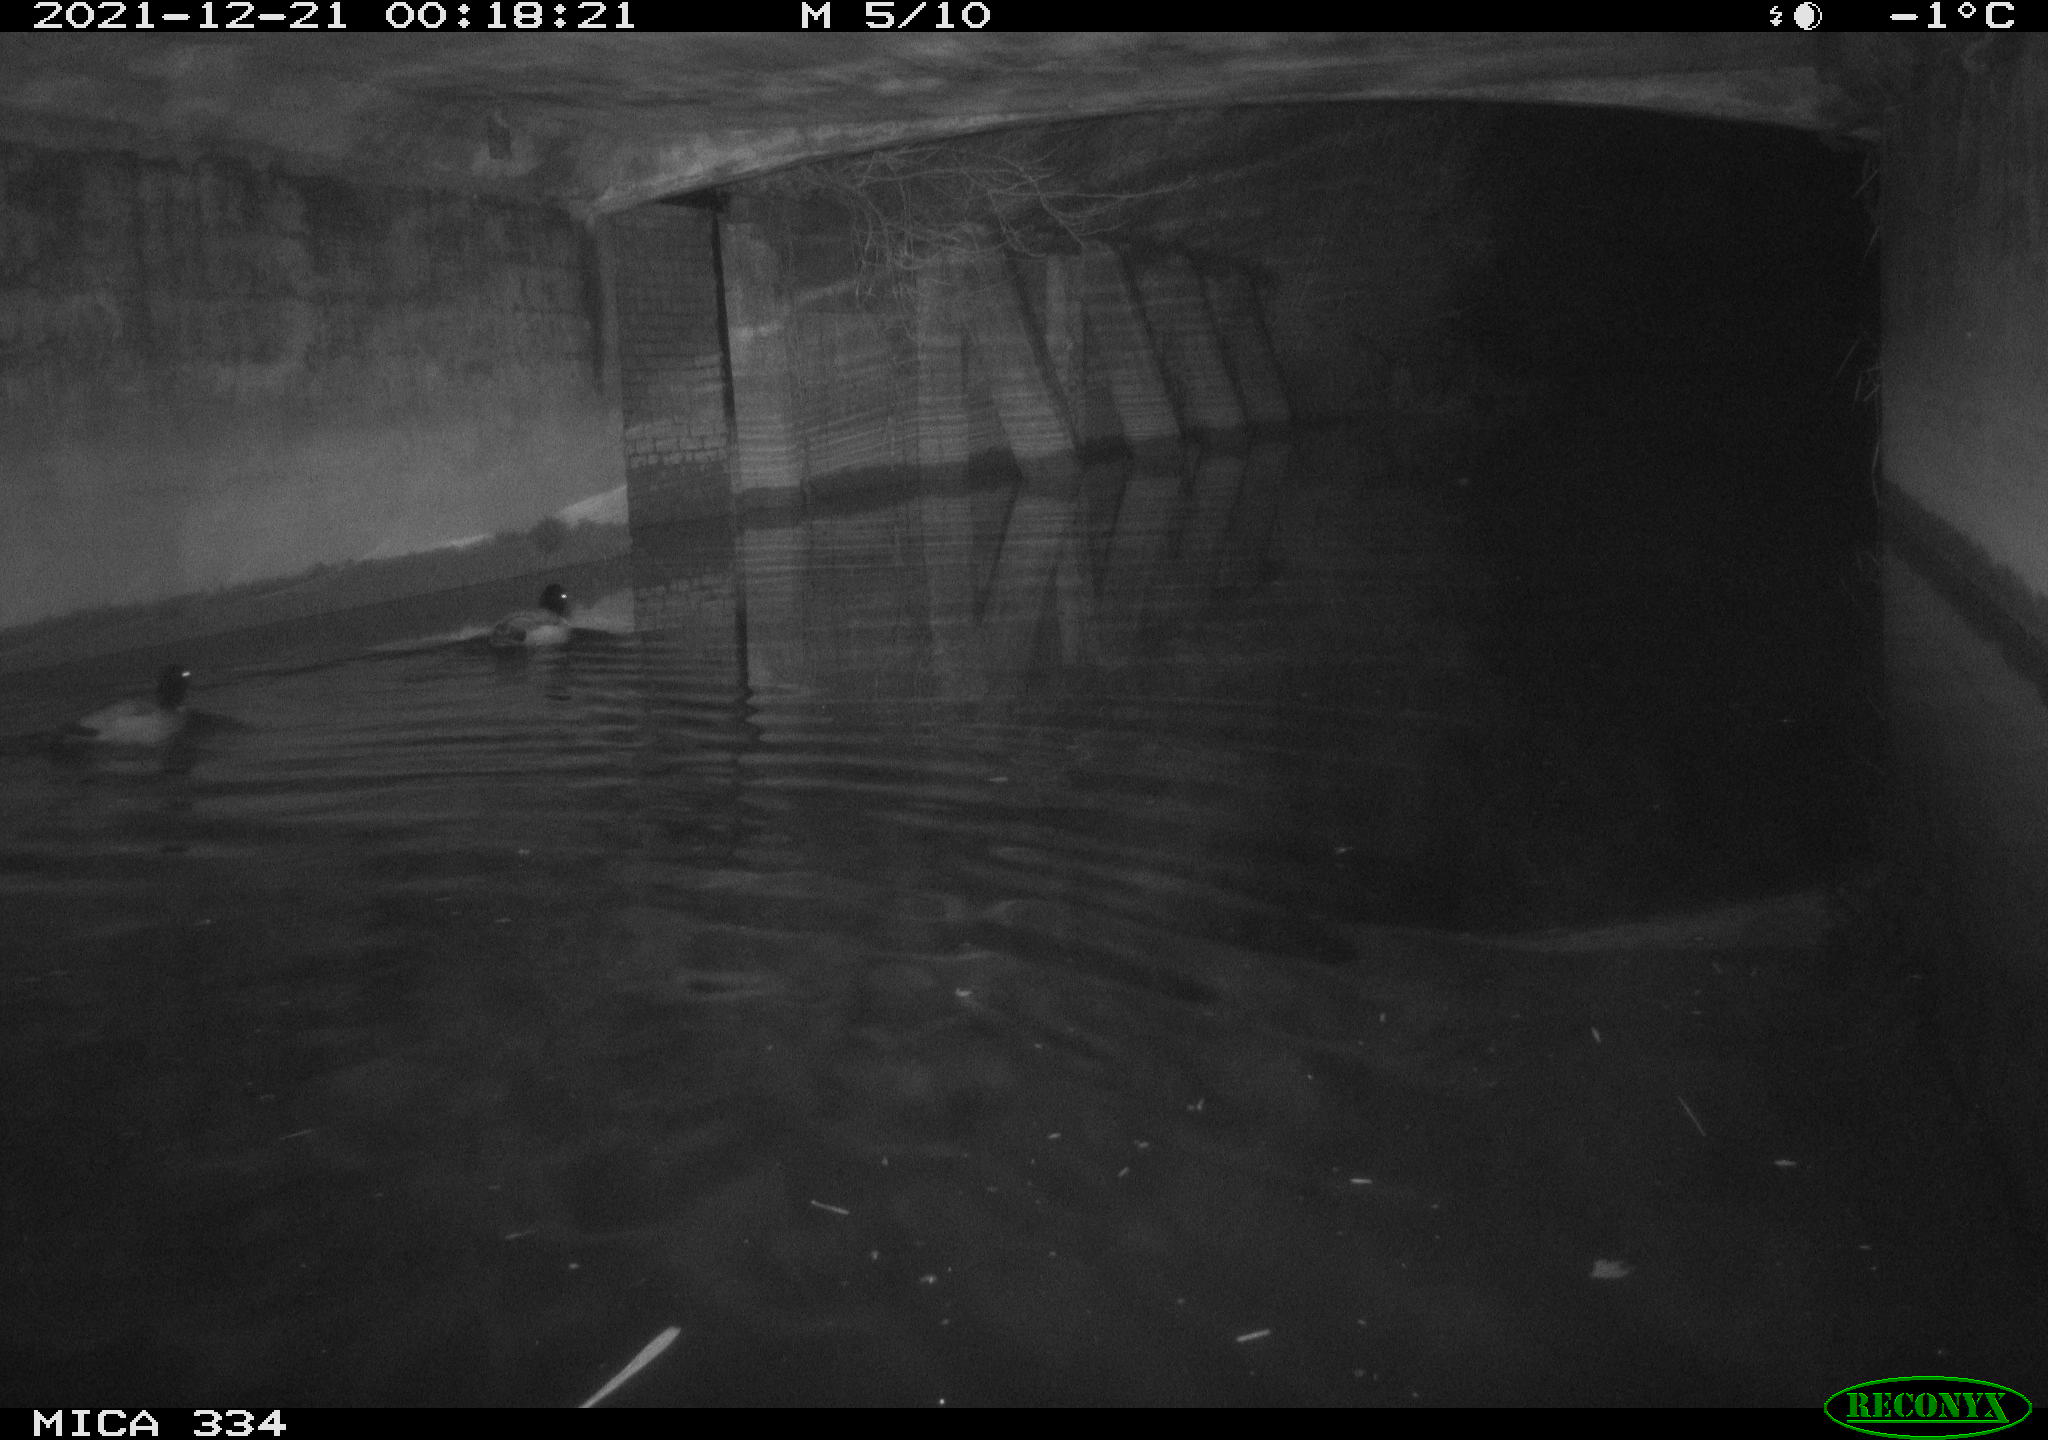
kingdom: Animalia
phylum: Chordata
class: Aves
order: Anseriformes
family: Anatidae
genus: Anas
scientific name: Anas platyrhynchos
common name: Mallard
